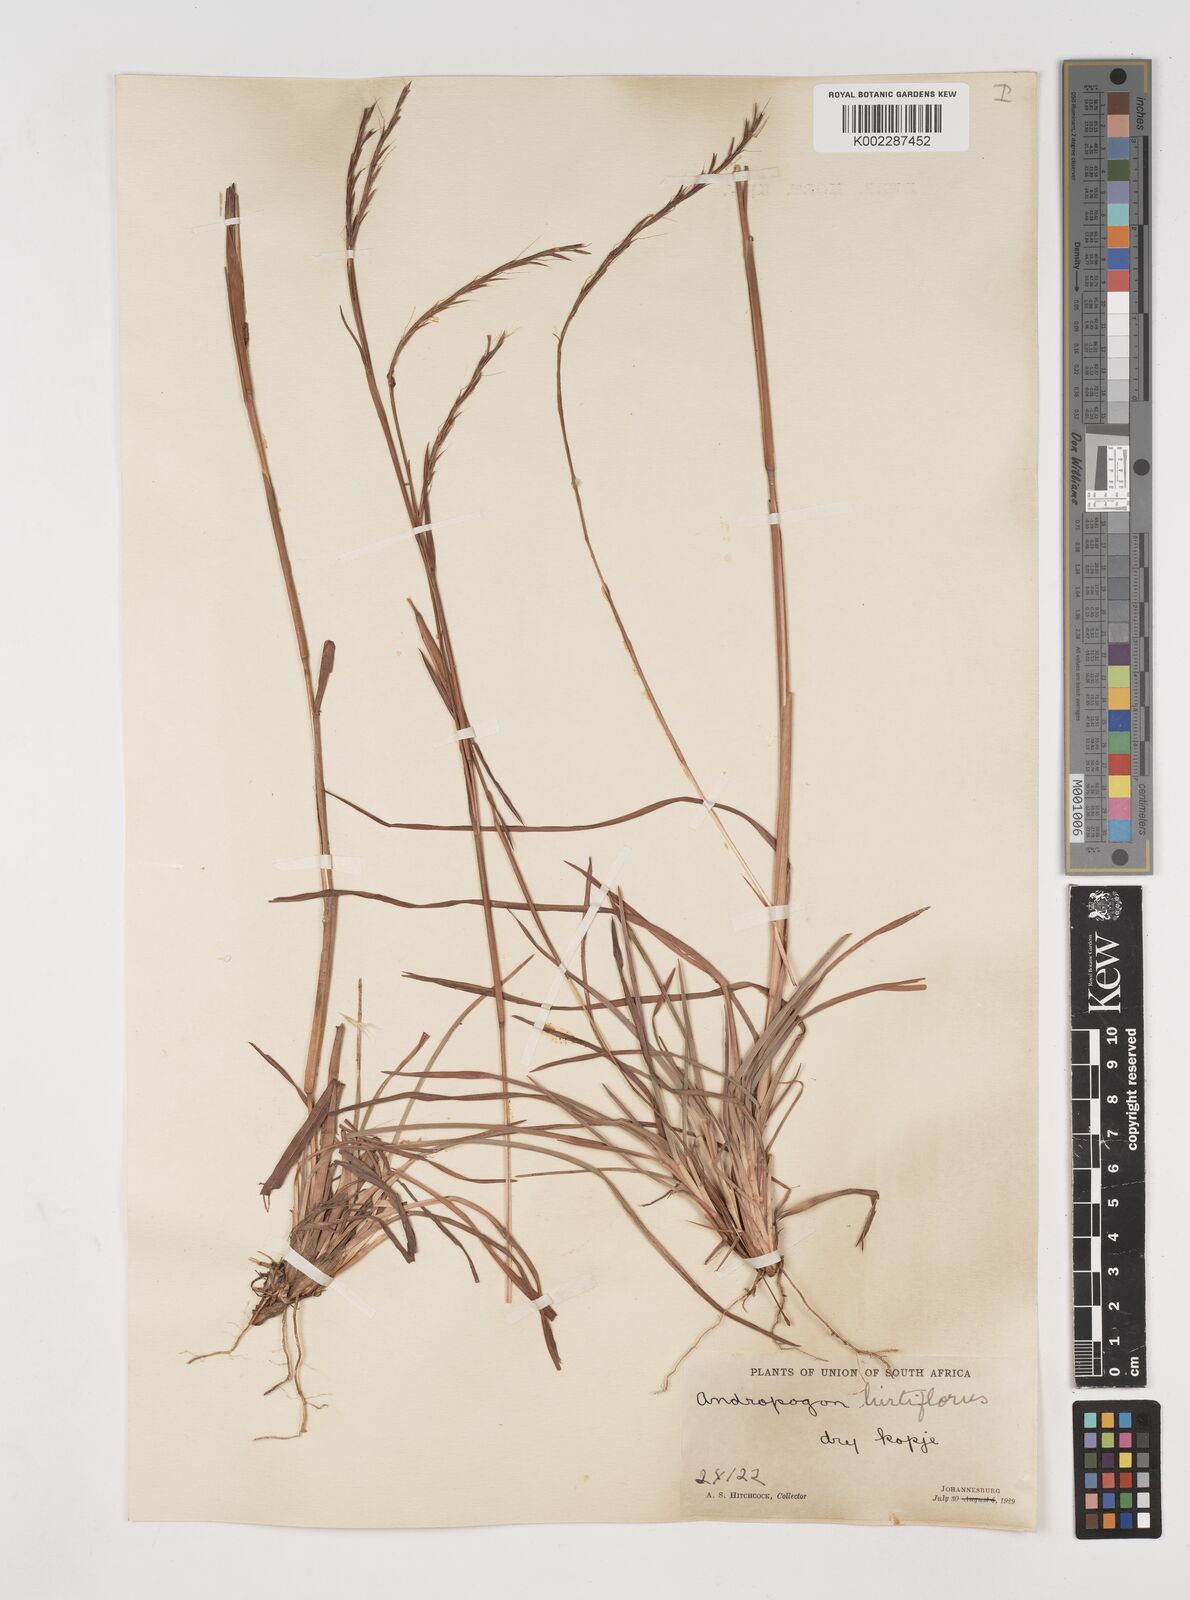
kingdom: Plantae
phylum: Tracheophyta
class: Liliopsida
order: Poales
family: Poaceae
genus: Schizachyrium
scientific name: Schizachyrium sanguineum
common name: Crimson bluestem
